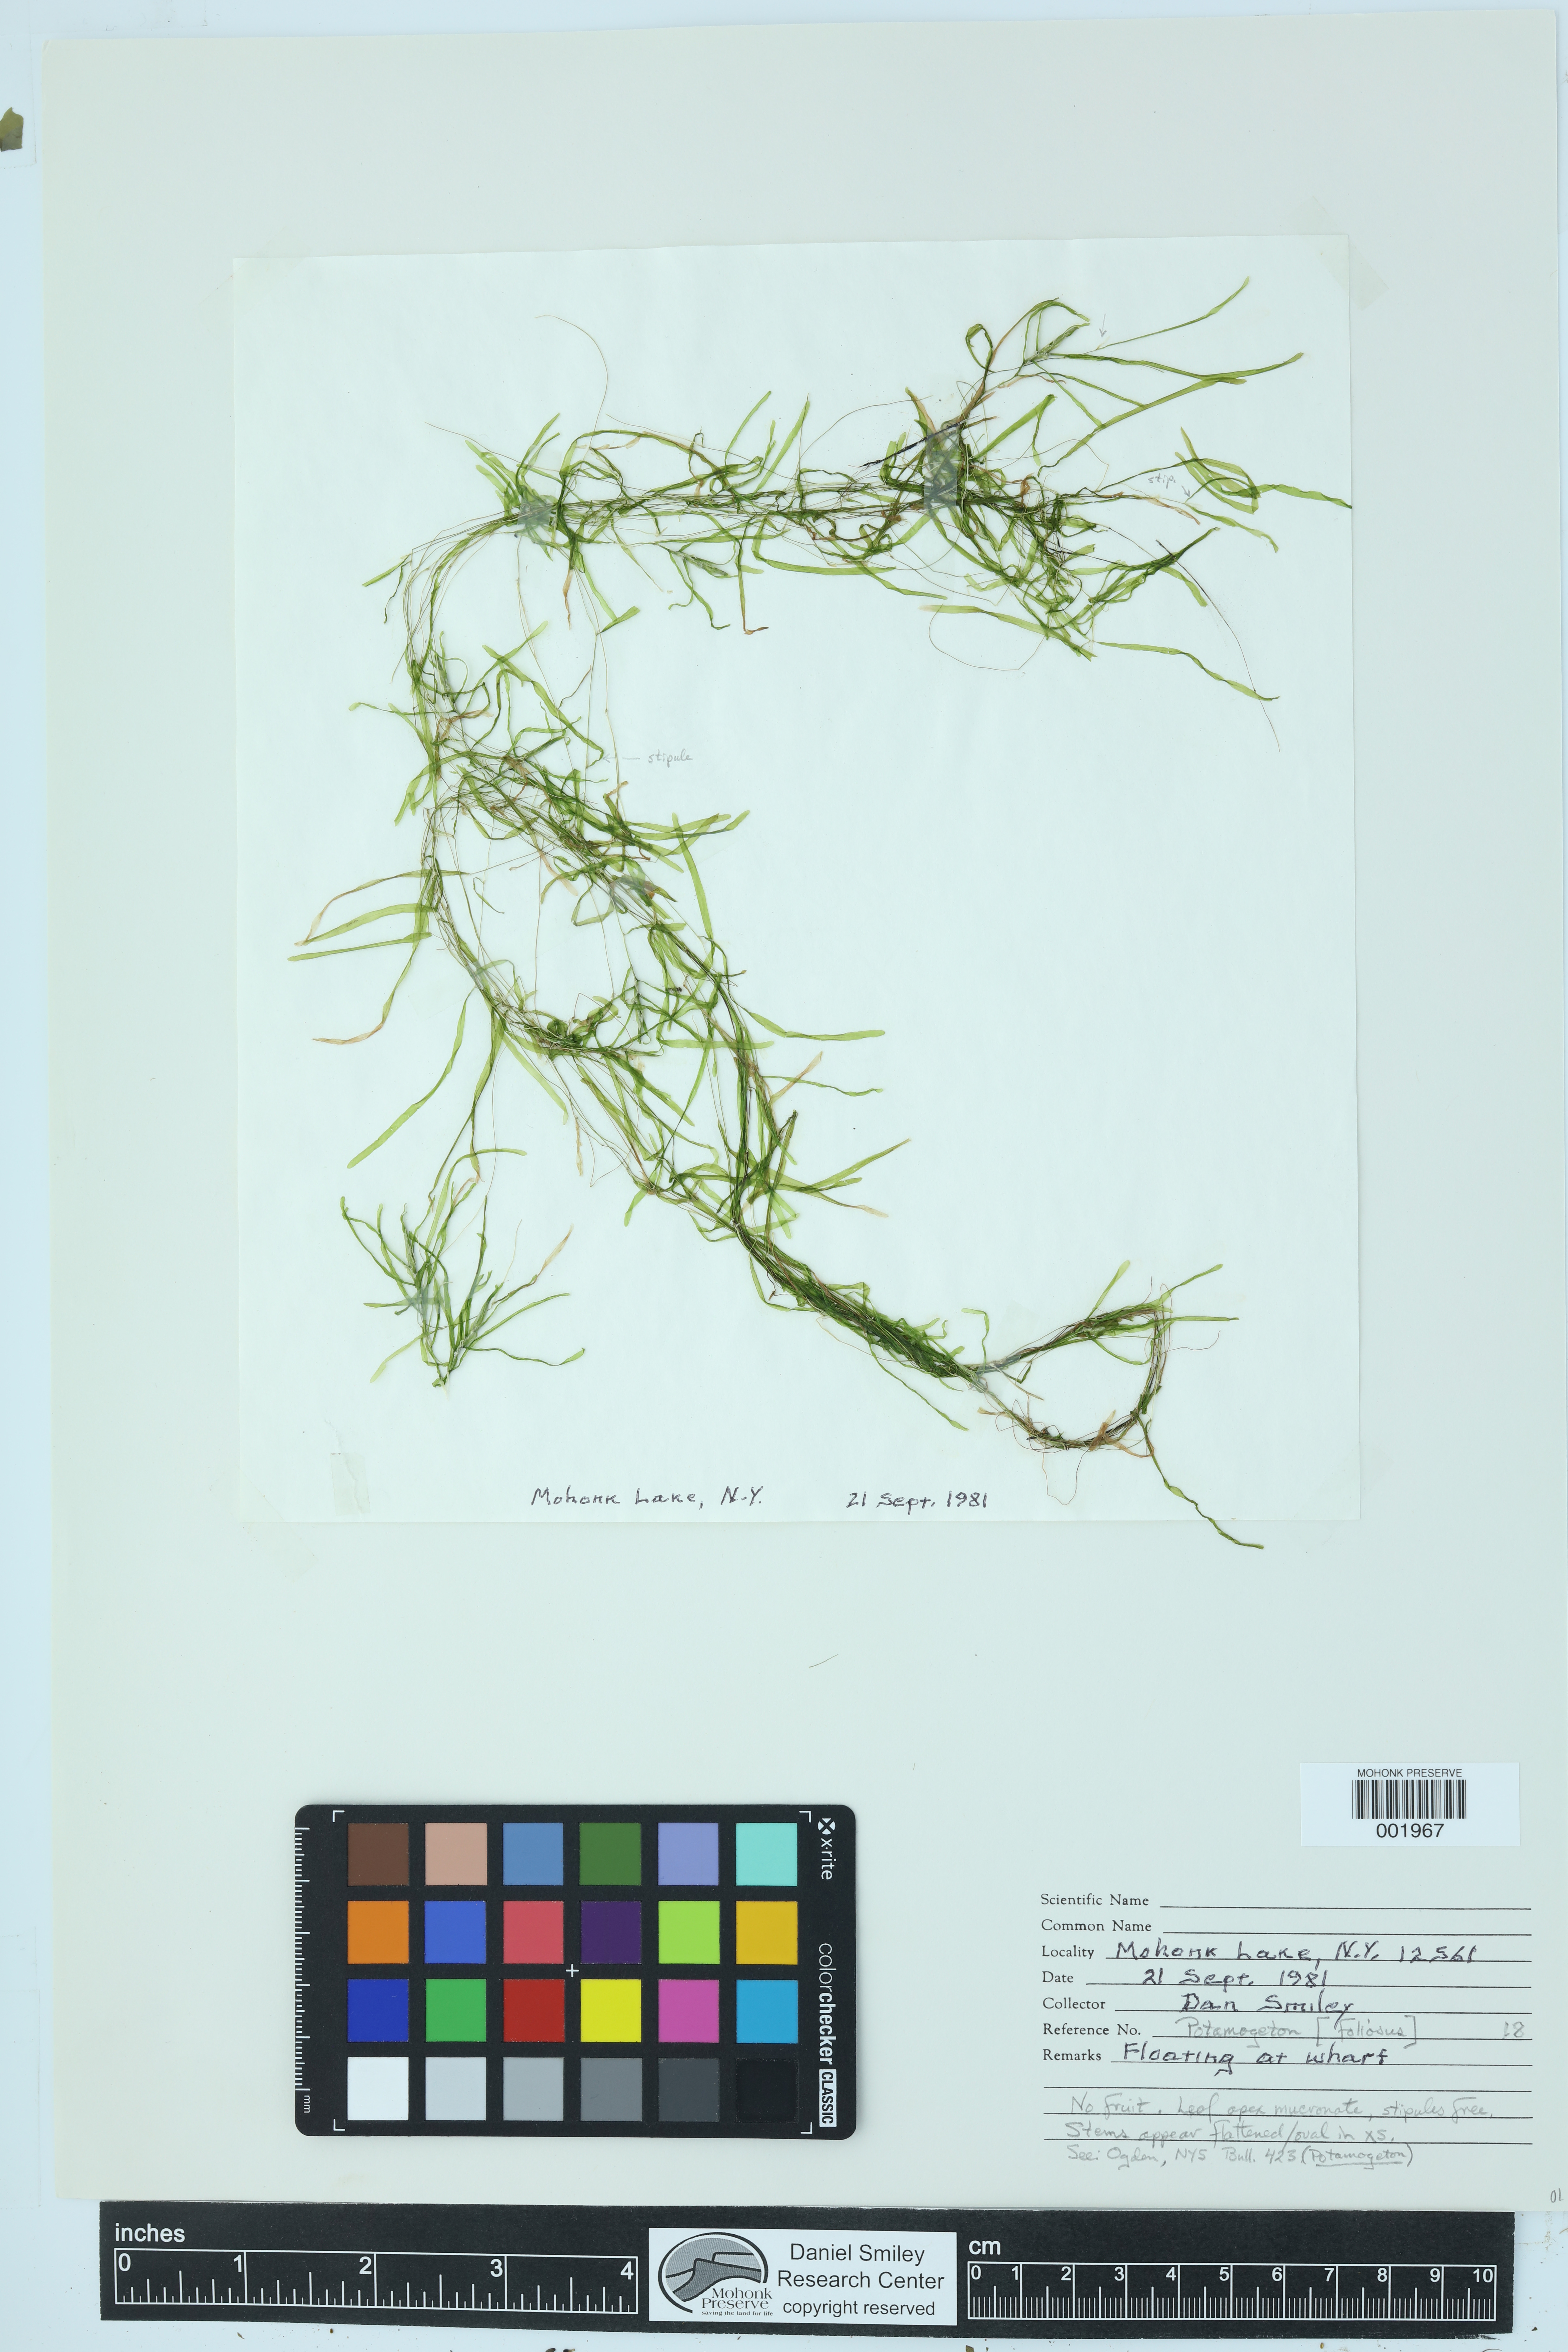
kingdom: Plantae
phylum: Tracheophyta
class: Liliopsida
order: Alismatales
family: Potamogetonaceae
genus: Potamogeton
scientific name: Potamogeton foliosus
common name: Leafy pondweed
